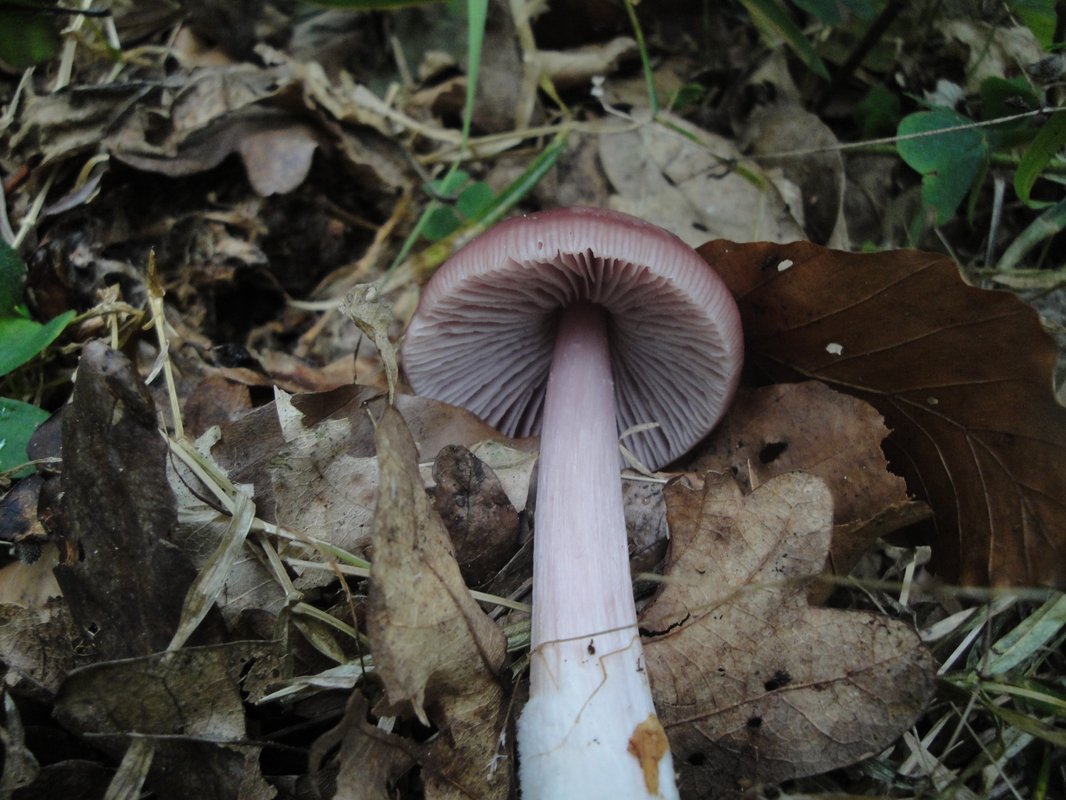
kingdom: Fungi
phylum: Basidiomycota
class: Agaricomycetes
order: Agaricales
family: Mycenaceae
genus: Mycena
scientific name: Mycena rosea
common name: rosa huesvamp
